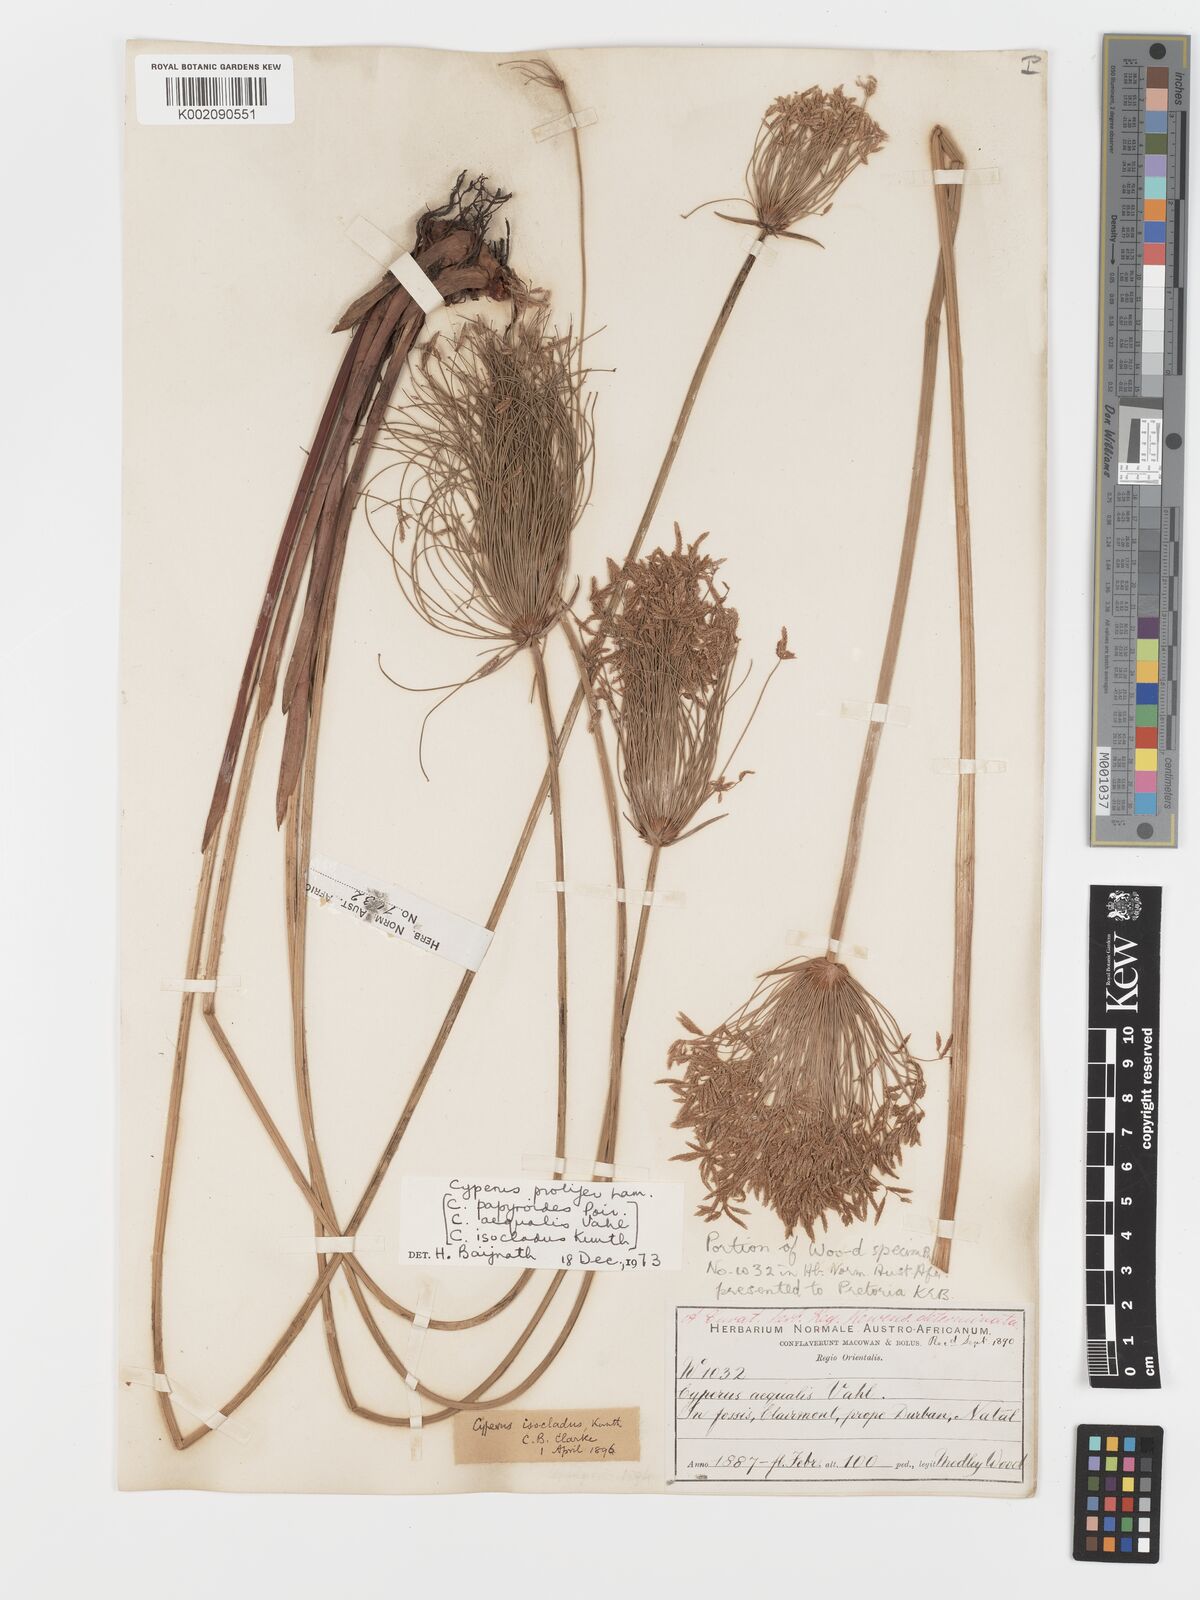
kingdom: Plantae
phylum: Tracheophyta
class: Liliopsida
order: Poales
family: Cyperaceae
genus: Cyperus
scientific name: Cyperus prolifer
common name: Miniature flatsedge
